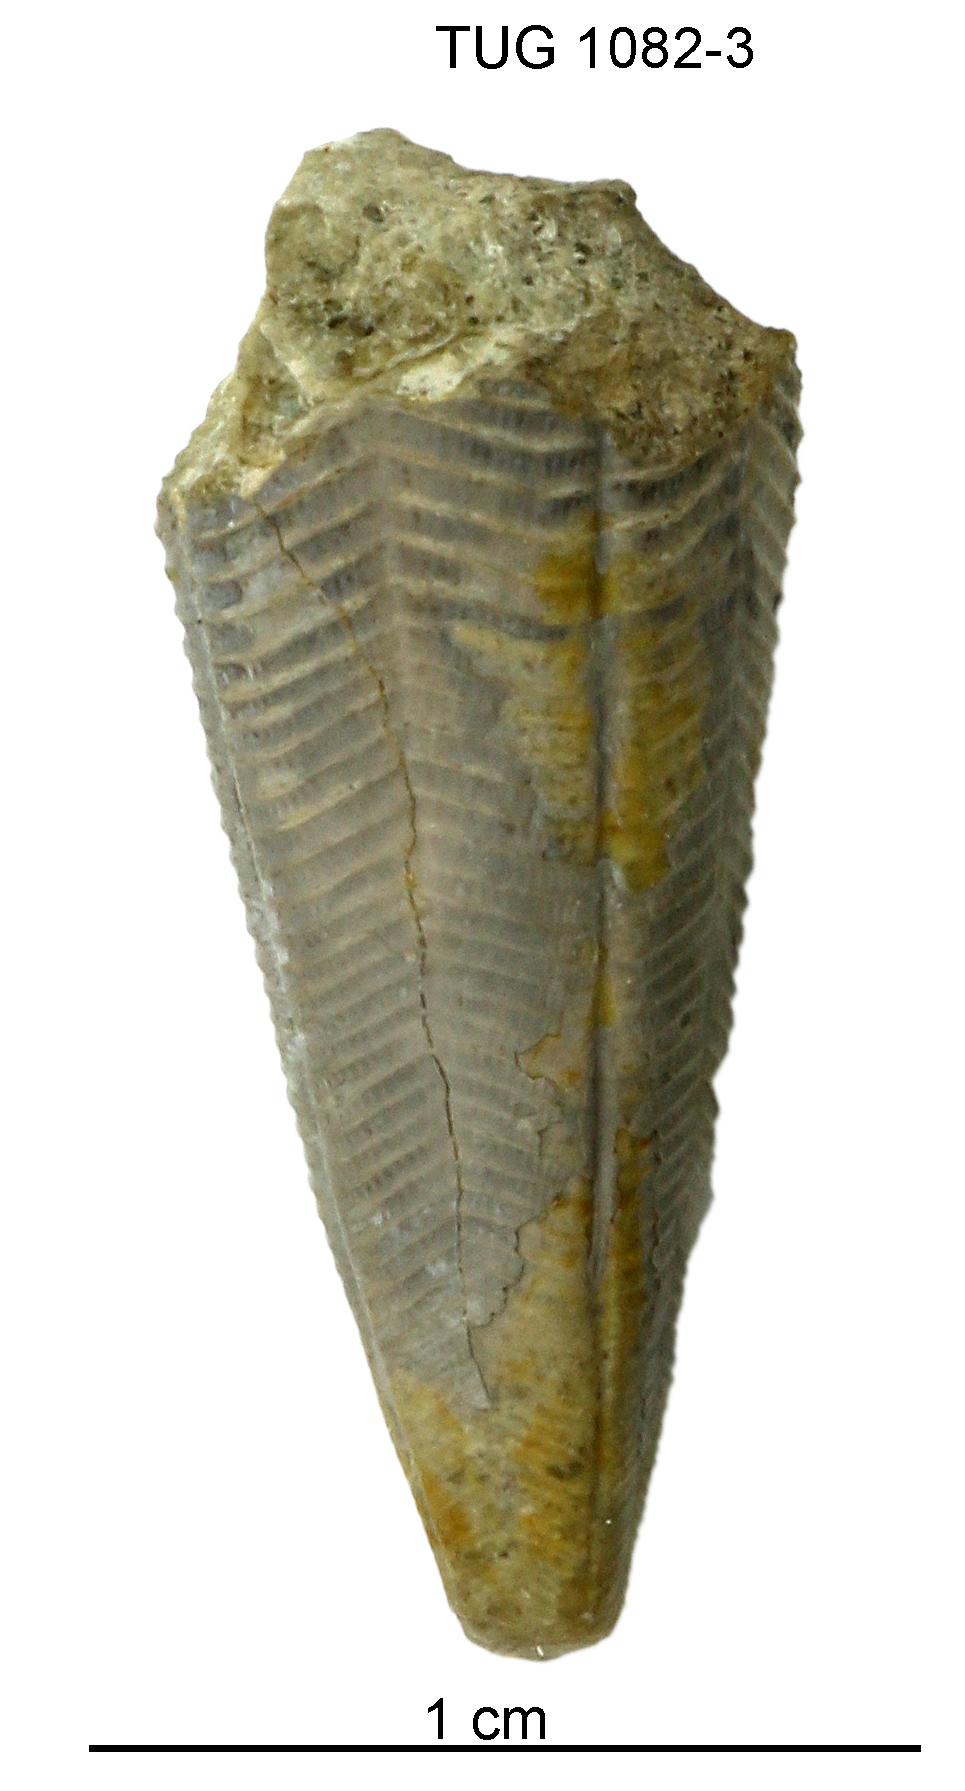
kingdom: Animalia
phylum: Cnidaria
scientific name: Cnidaria
